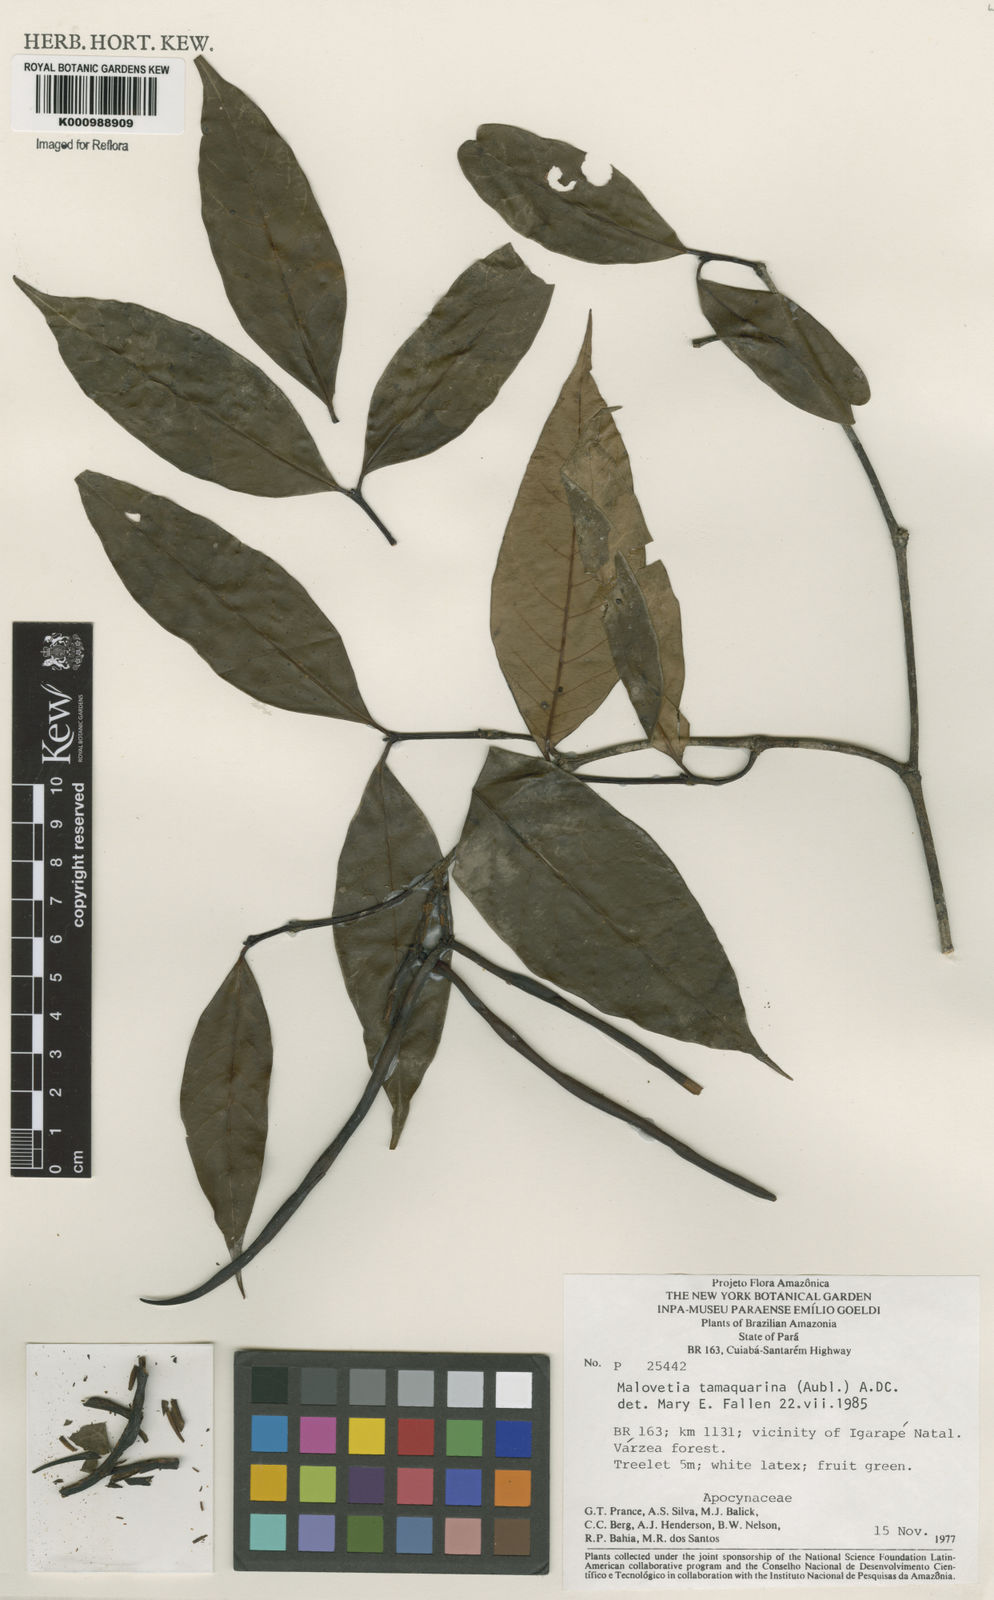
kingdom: Plantae
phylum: Tracheophyta
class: Magnoliopsida
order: Gentianales
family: Apocynaceae
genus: Malouetia
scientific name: Malouetia tamaquarina
